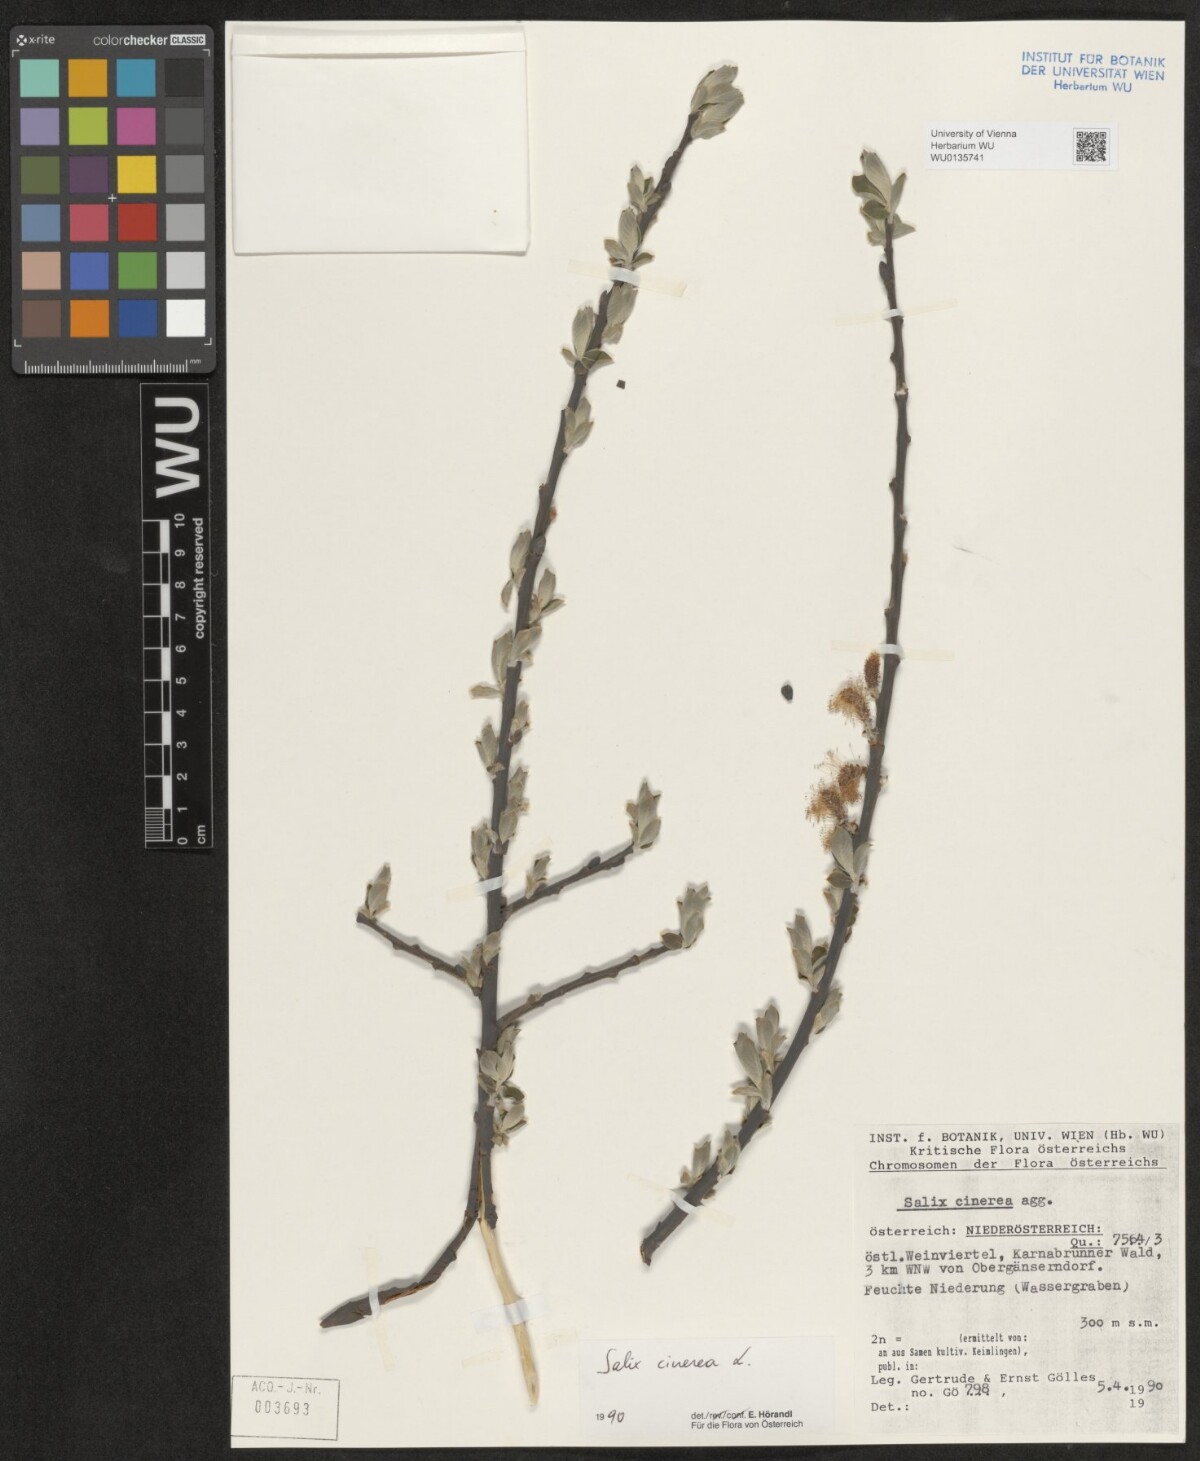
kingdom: Plantae
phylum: Tracheophyta
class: Magnoliopsida
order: Malpighiales
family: Salicaceae
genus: Salix
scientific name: Salix cinerea
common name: Common sallow
